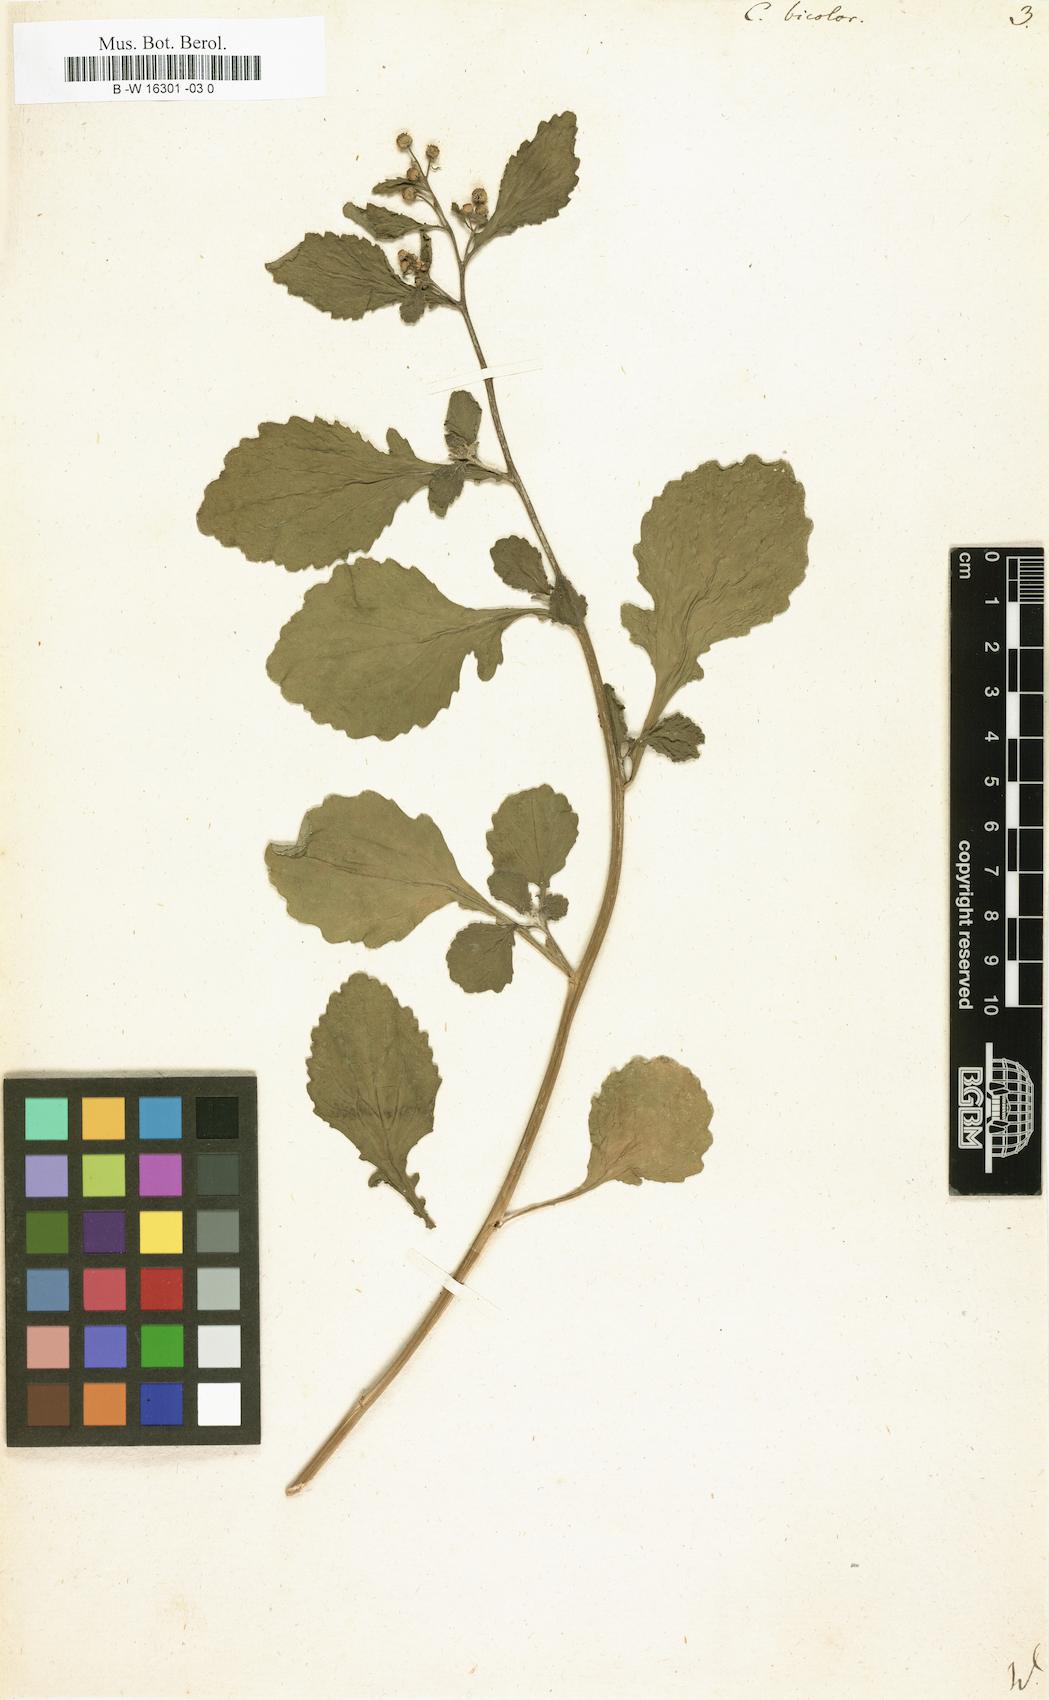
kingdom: Plantae
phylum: Tracheophyta
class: Magnoliopsida
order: Asterales
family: Asteraceae
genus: Dichrocephala
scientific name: Dichrocephala integrifolia
